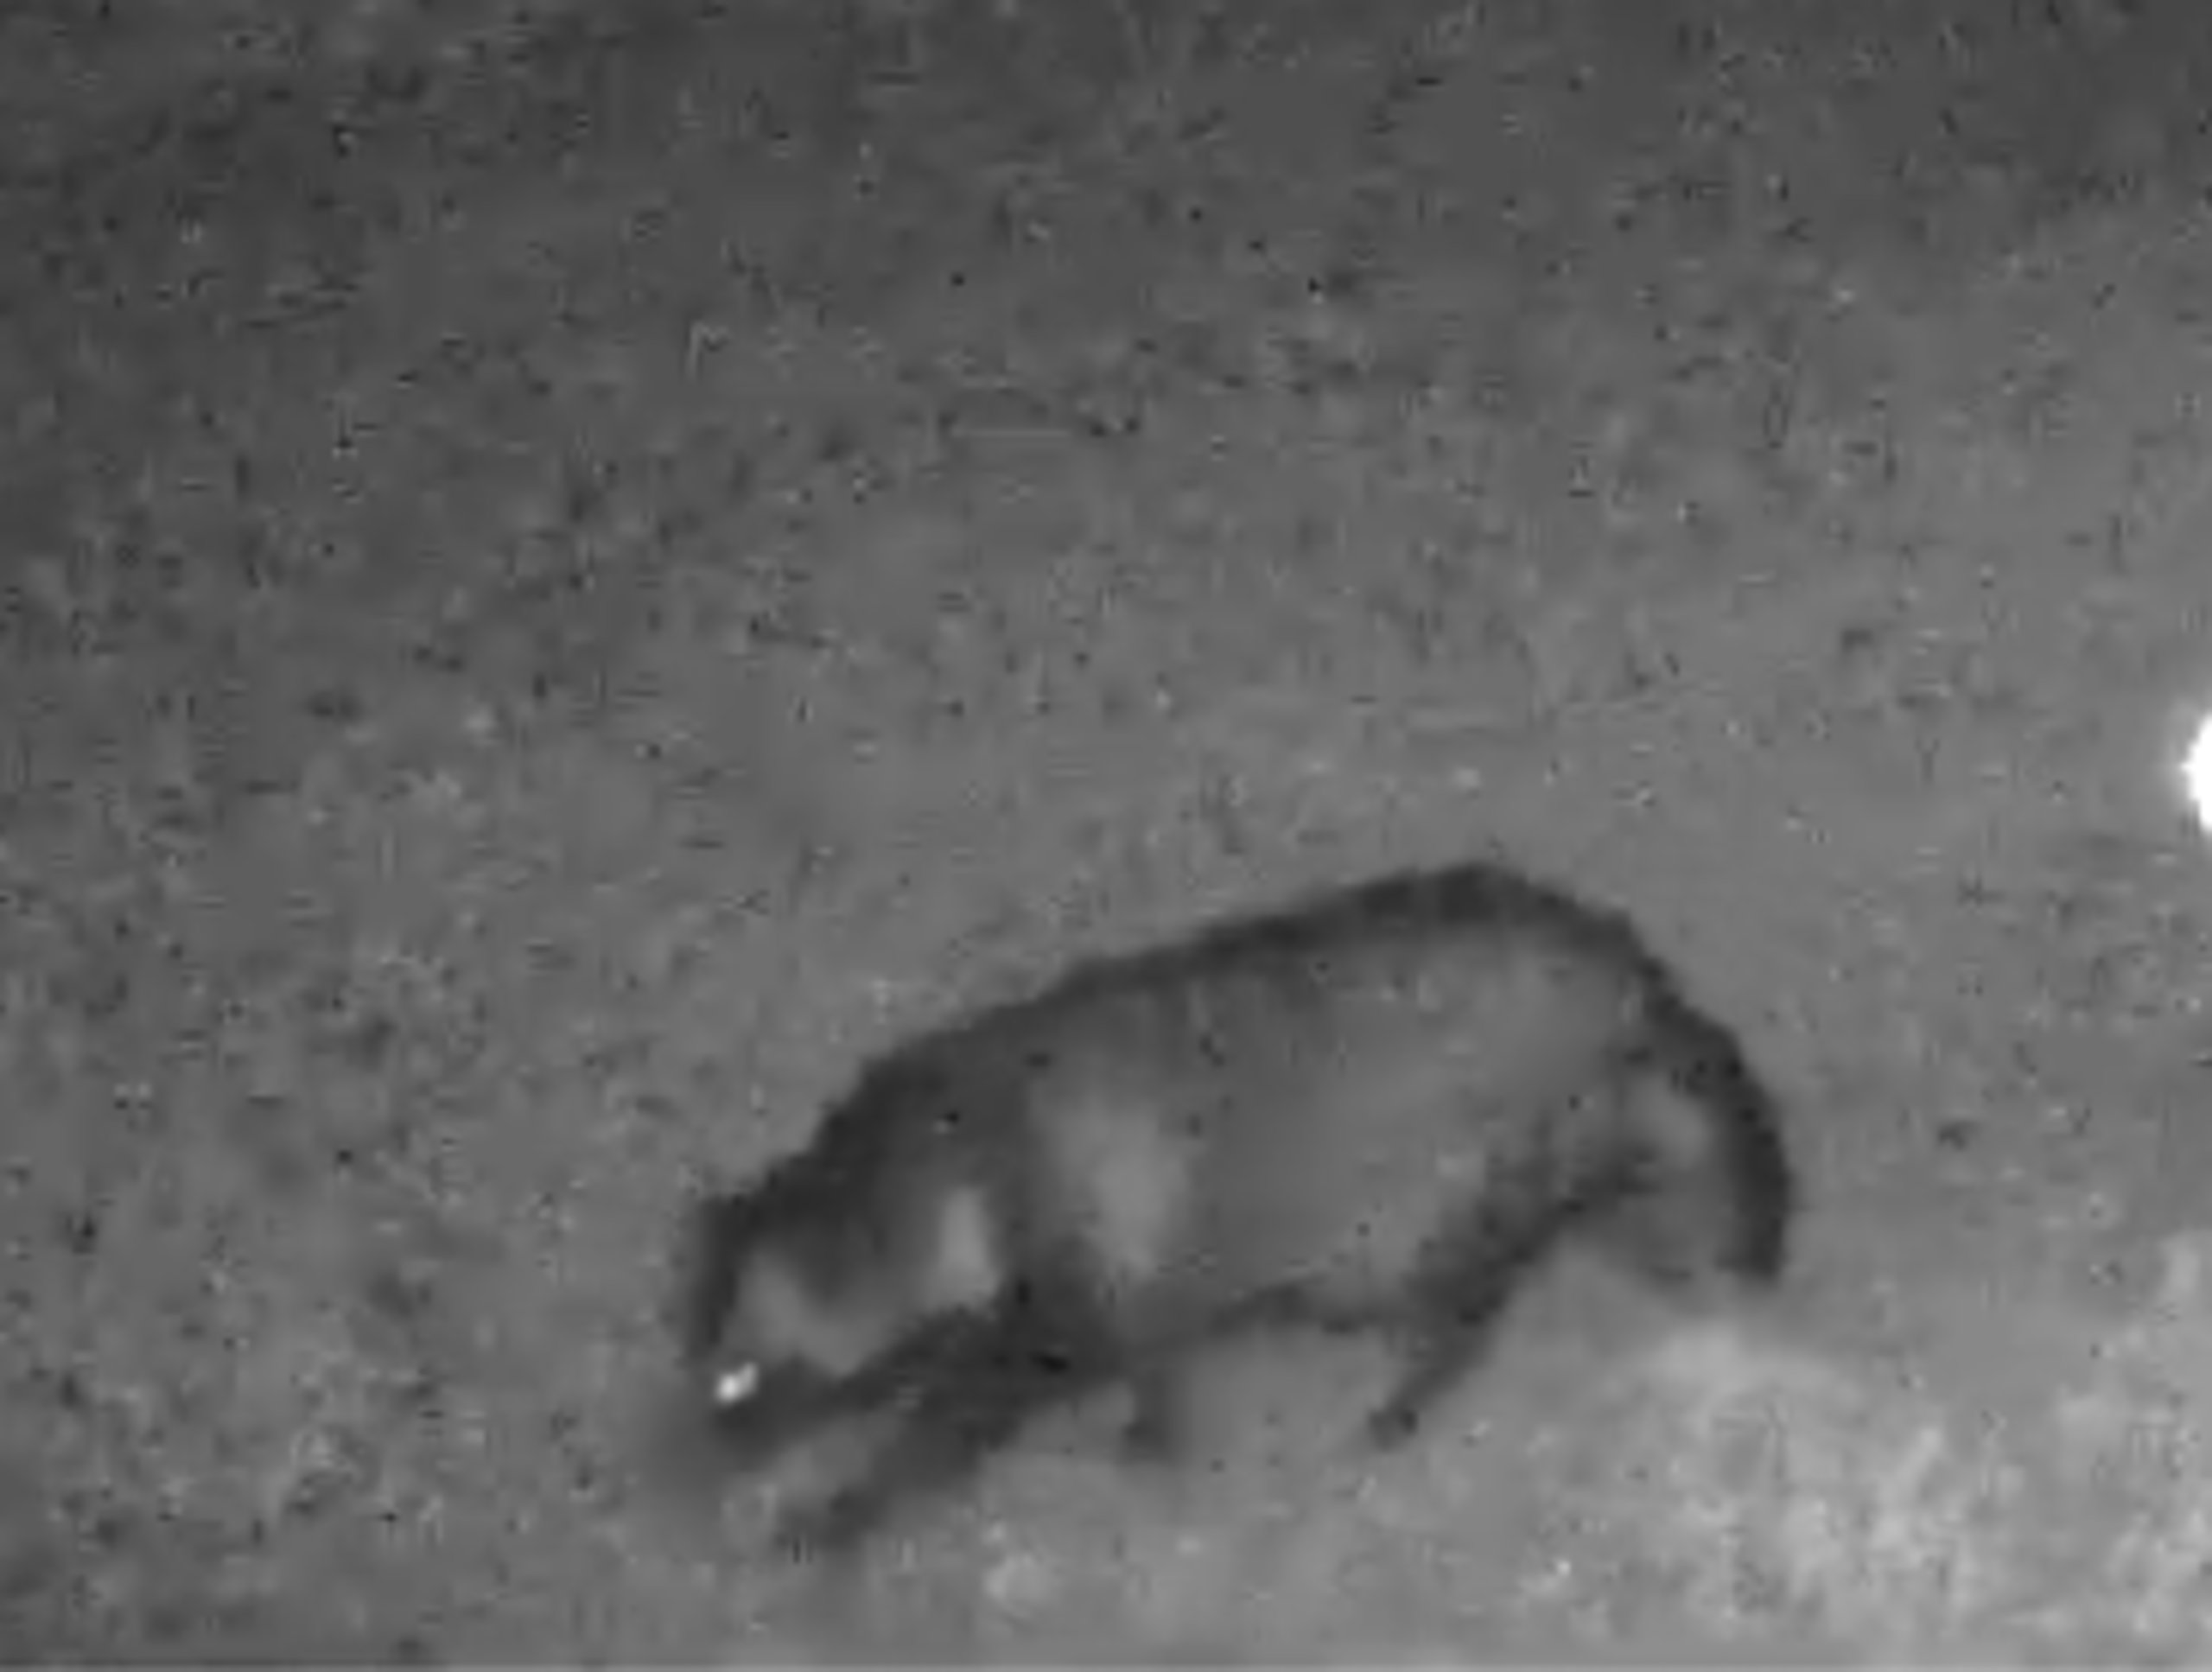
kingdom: Animalia
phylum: Chordata
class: Mammalia
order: Carnivora
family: Canidae
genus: Nyctereutes
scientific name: Nyctereutes procyonoides
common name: Mårhund
